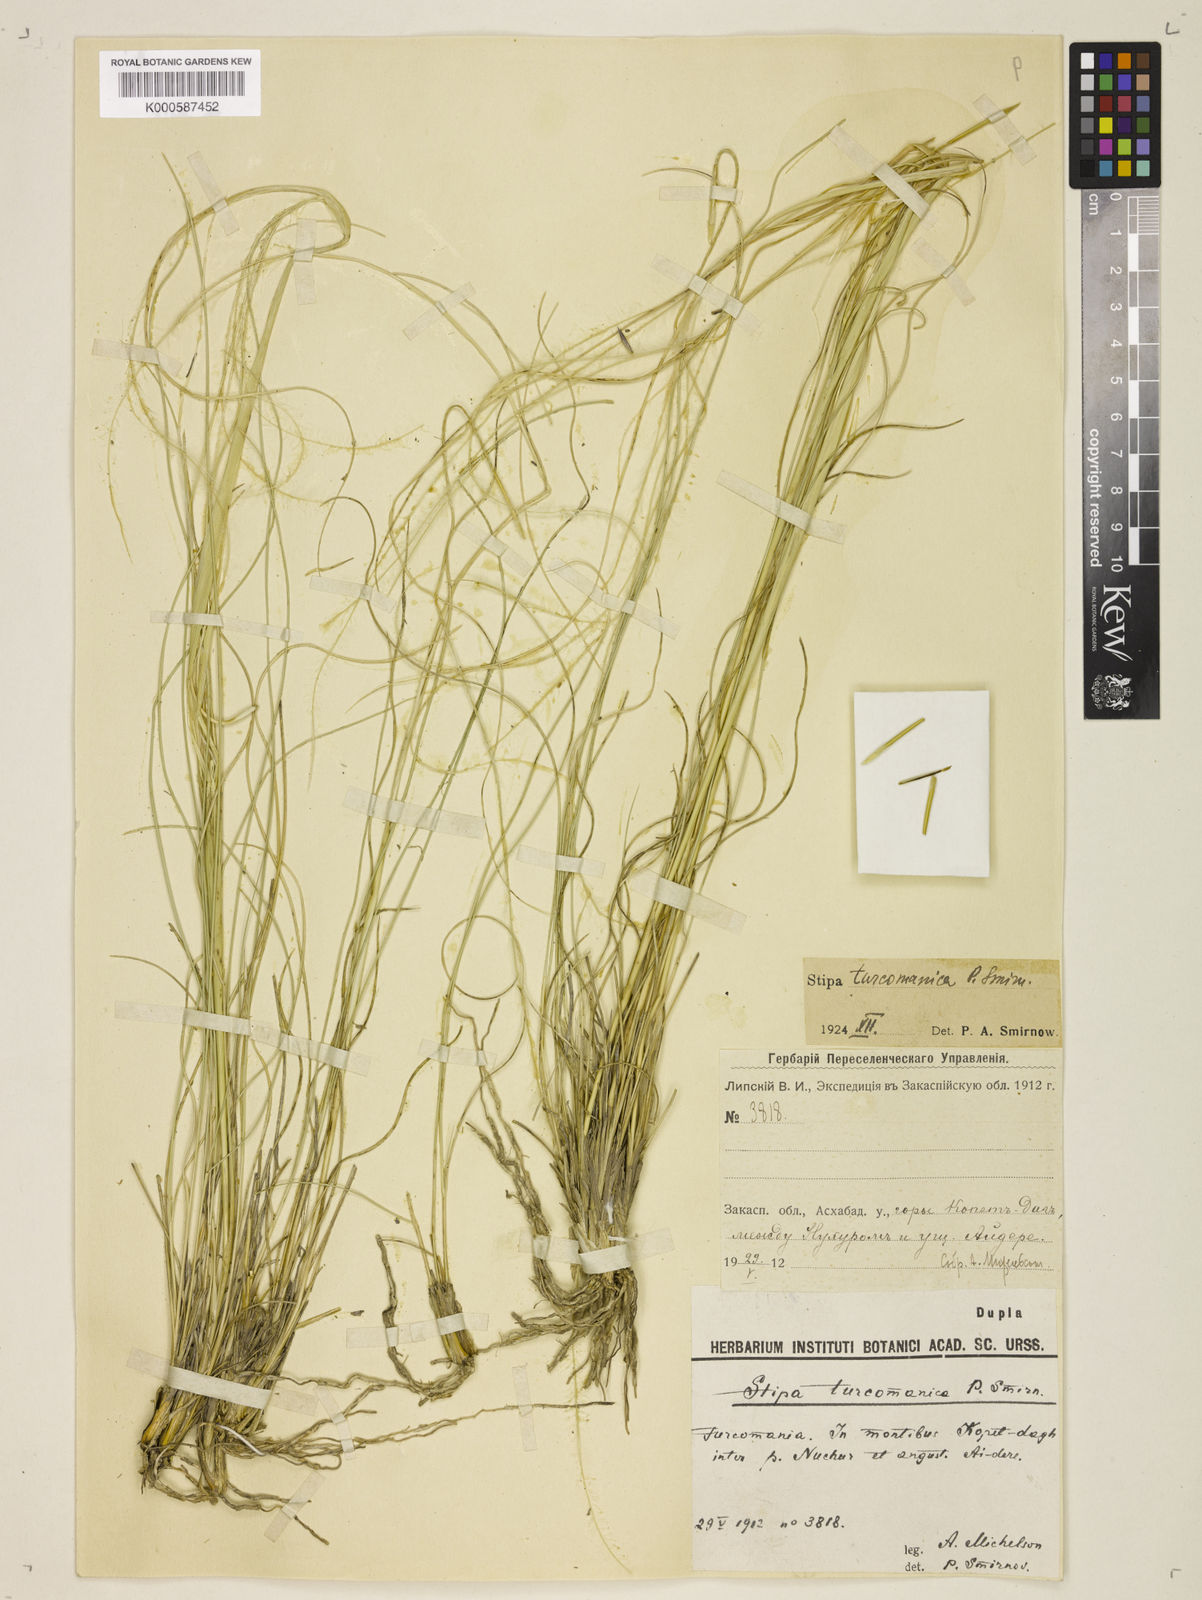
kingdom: Plantae
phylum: Tracheophyta
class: Liliopsida
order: Poales
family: Poaceae
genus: Stipa
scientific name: Stipa
